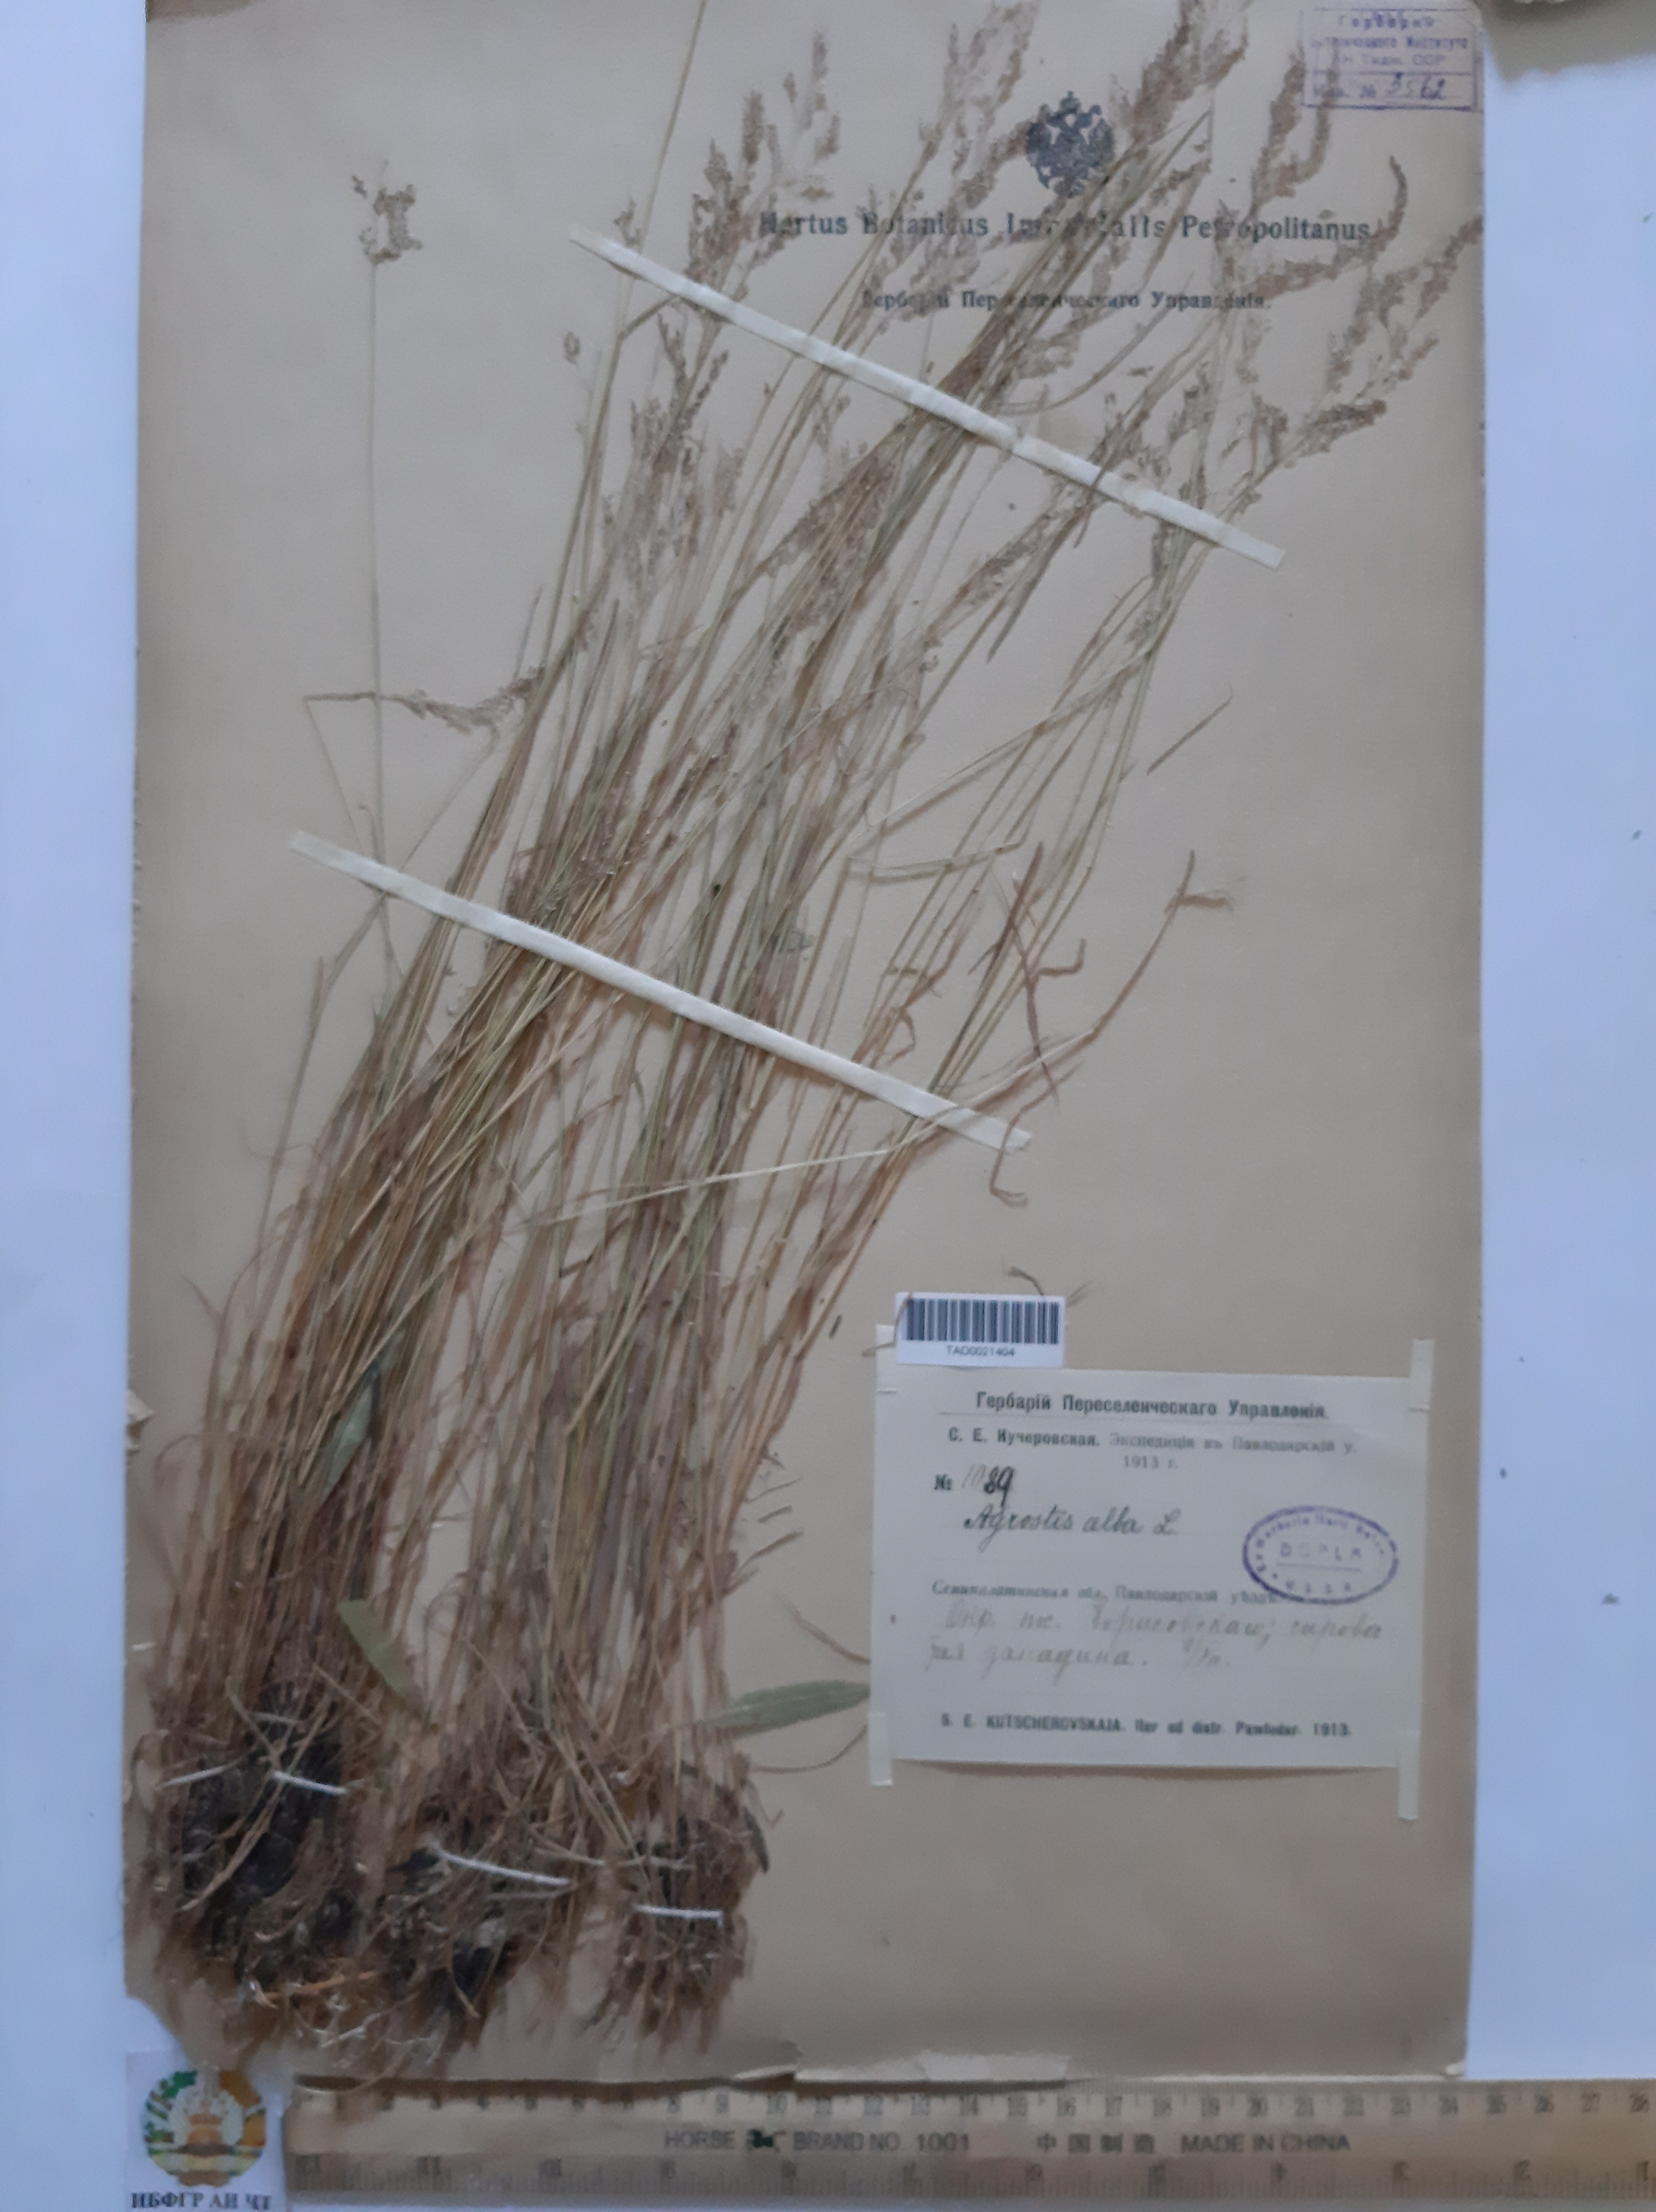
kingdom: Plantae
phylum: Tracheophyta
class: Liliopsida
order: Poales
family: Poaceae
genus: Poa
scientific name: Poa nemoralis
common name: Wood bluegrass
